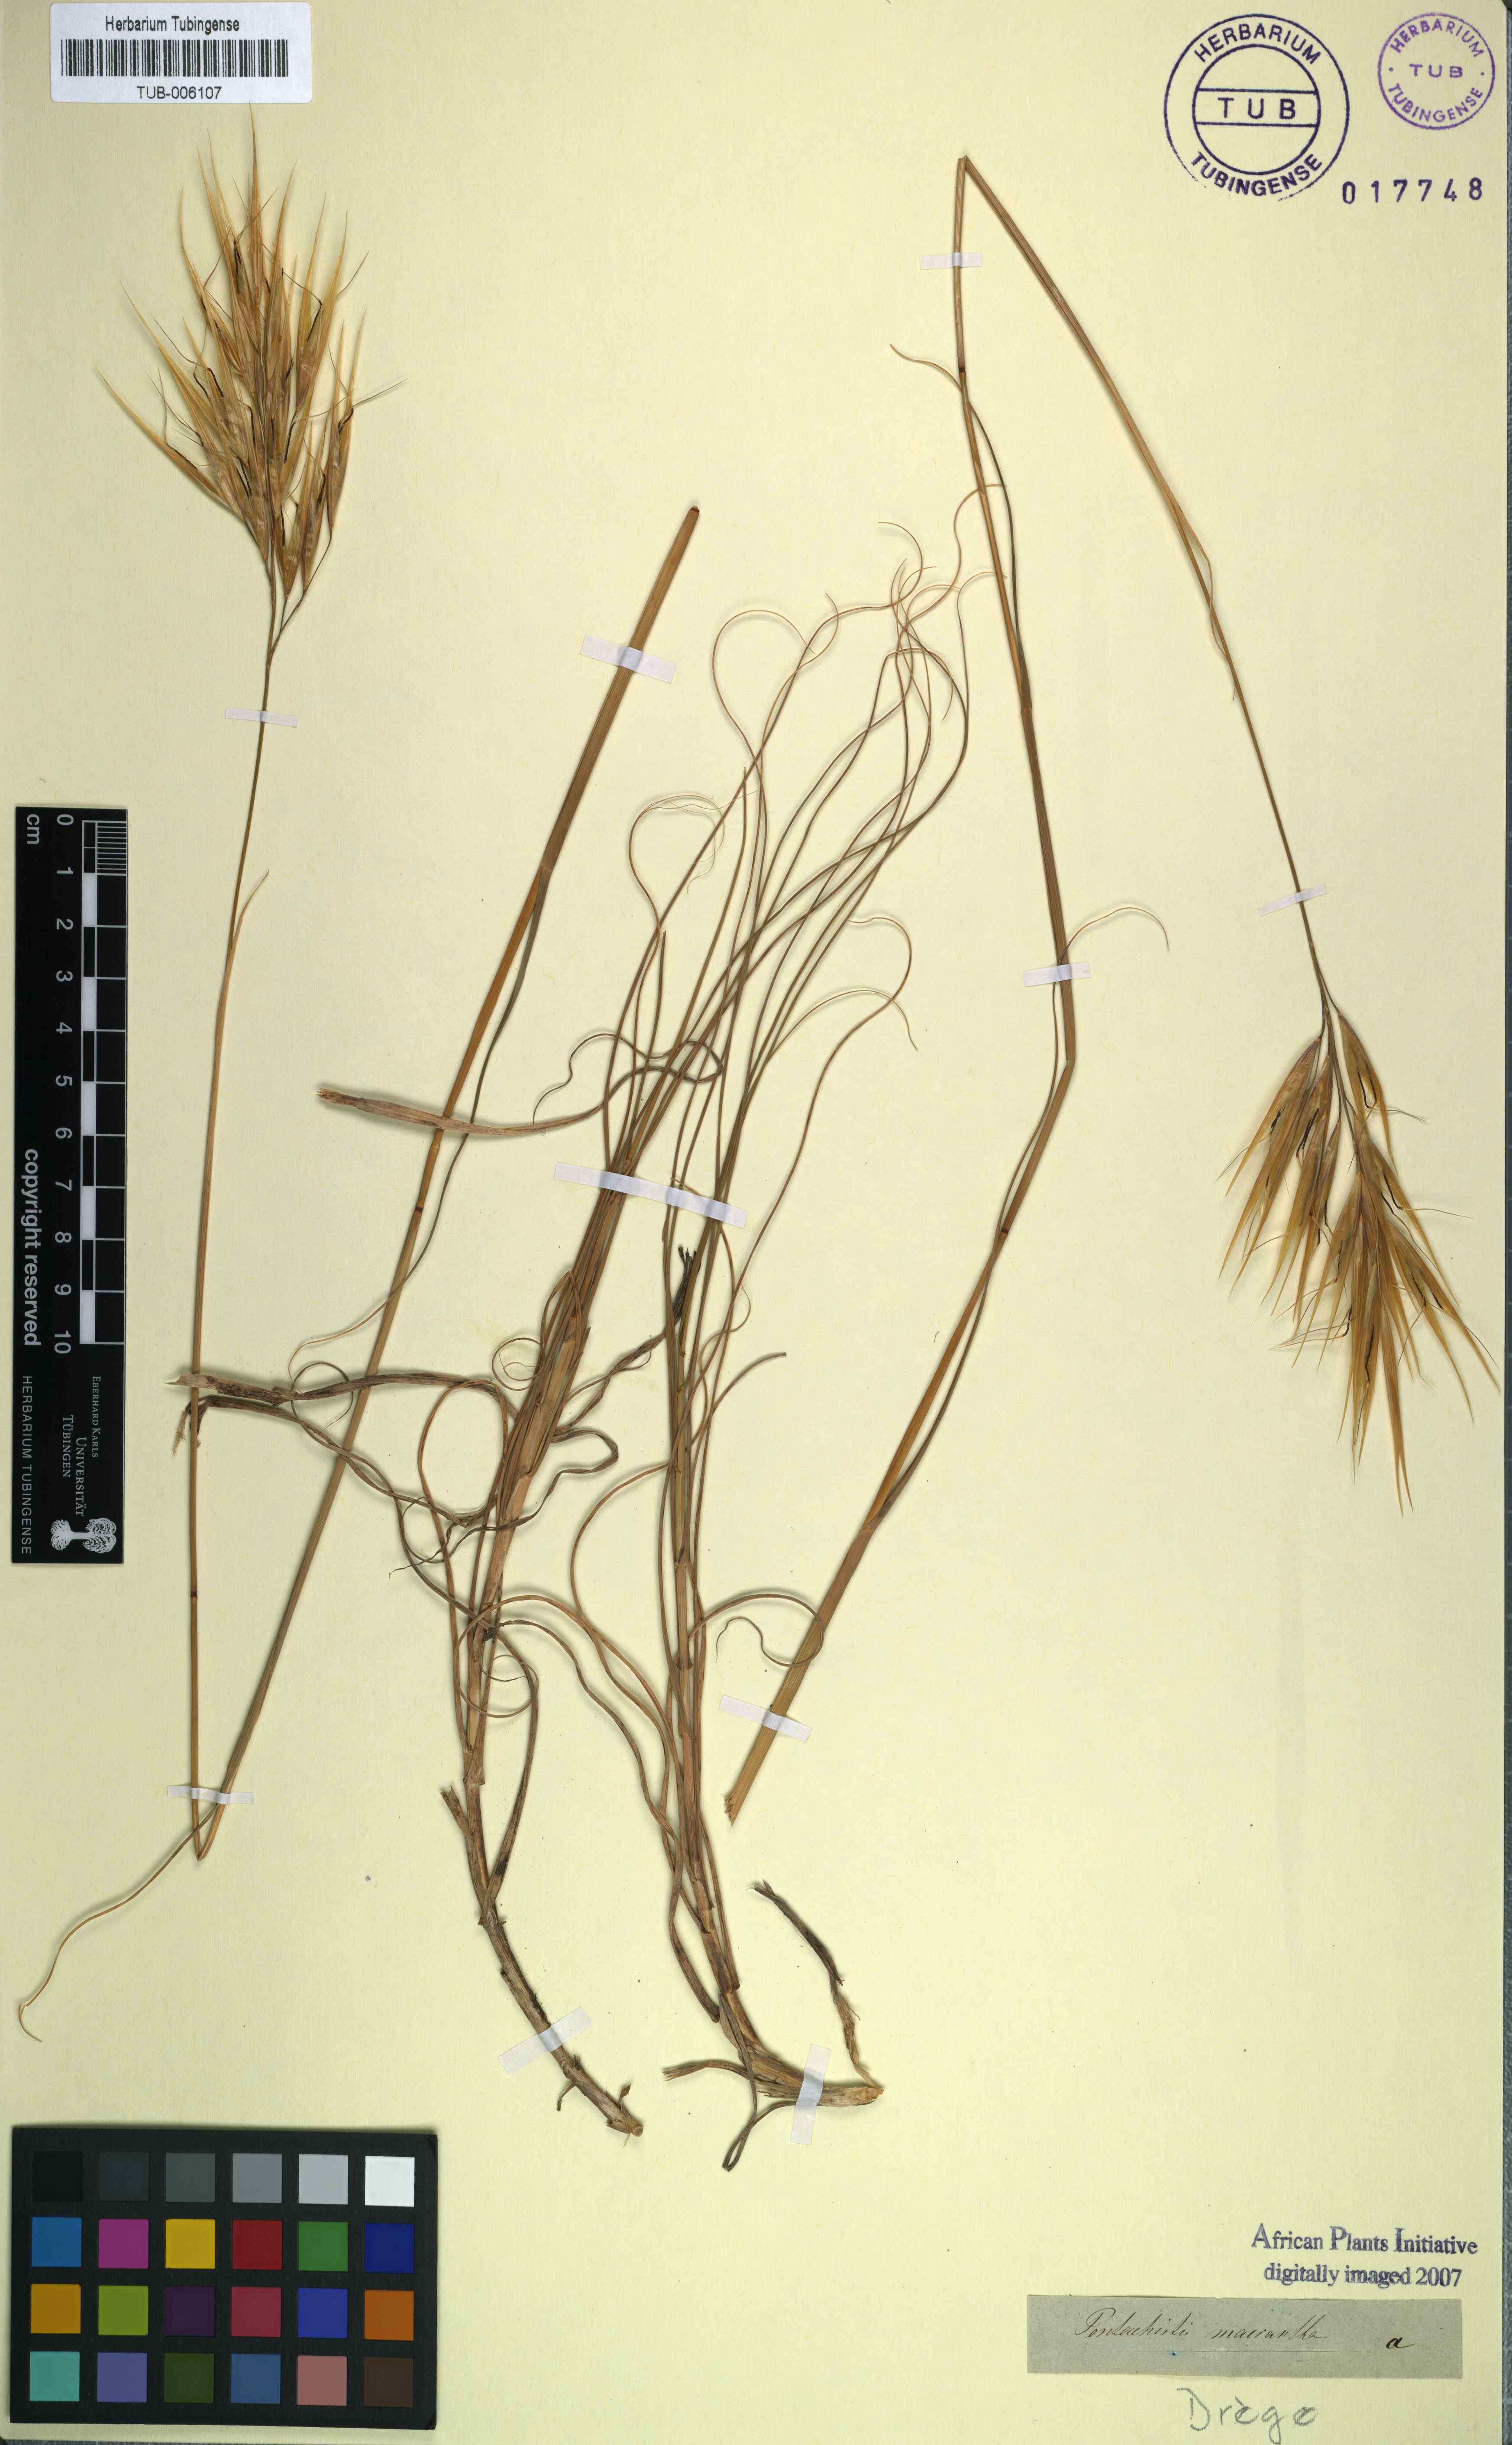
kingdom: Plantae
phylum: Tracheophyta
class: Liliopsida
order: Poales
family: Poaceae
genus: Pseudopentameris
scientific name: Pseudopentameris macrantha
